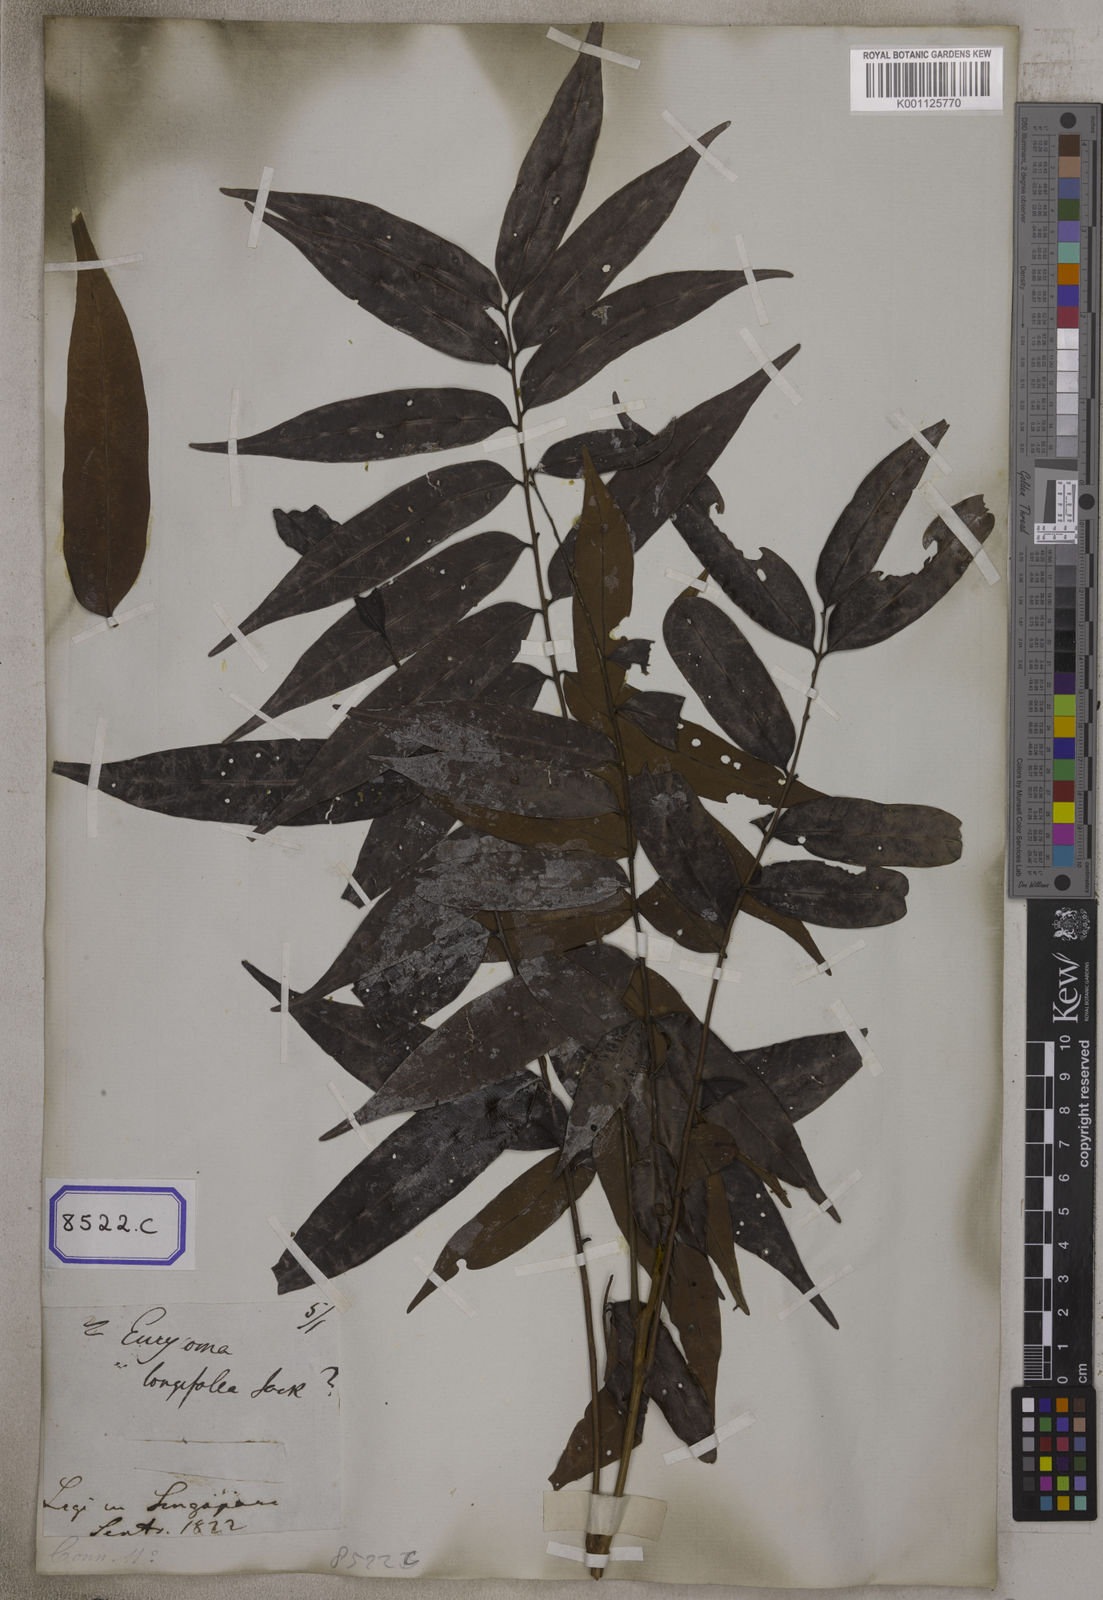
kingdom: Plantae
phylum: Tracheophyta
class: Magnoliopsida
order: Sapindales
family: Simaroubaceae
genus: Eurycoma
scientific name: Eurycoma longifolia
